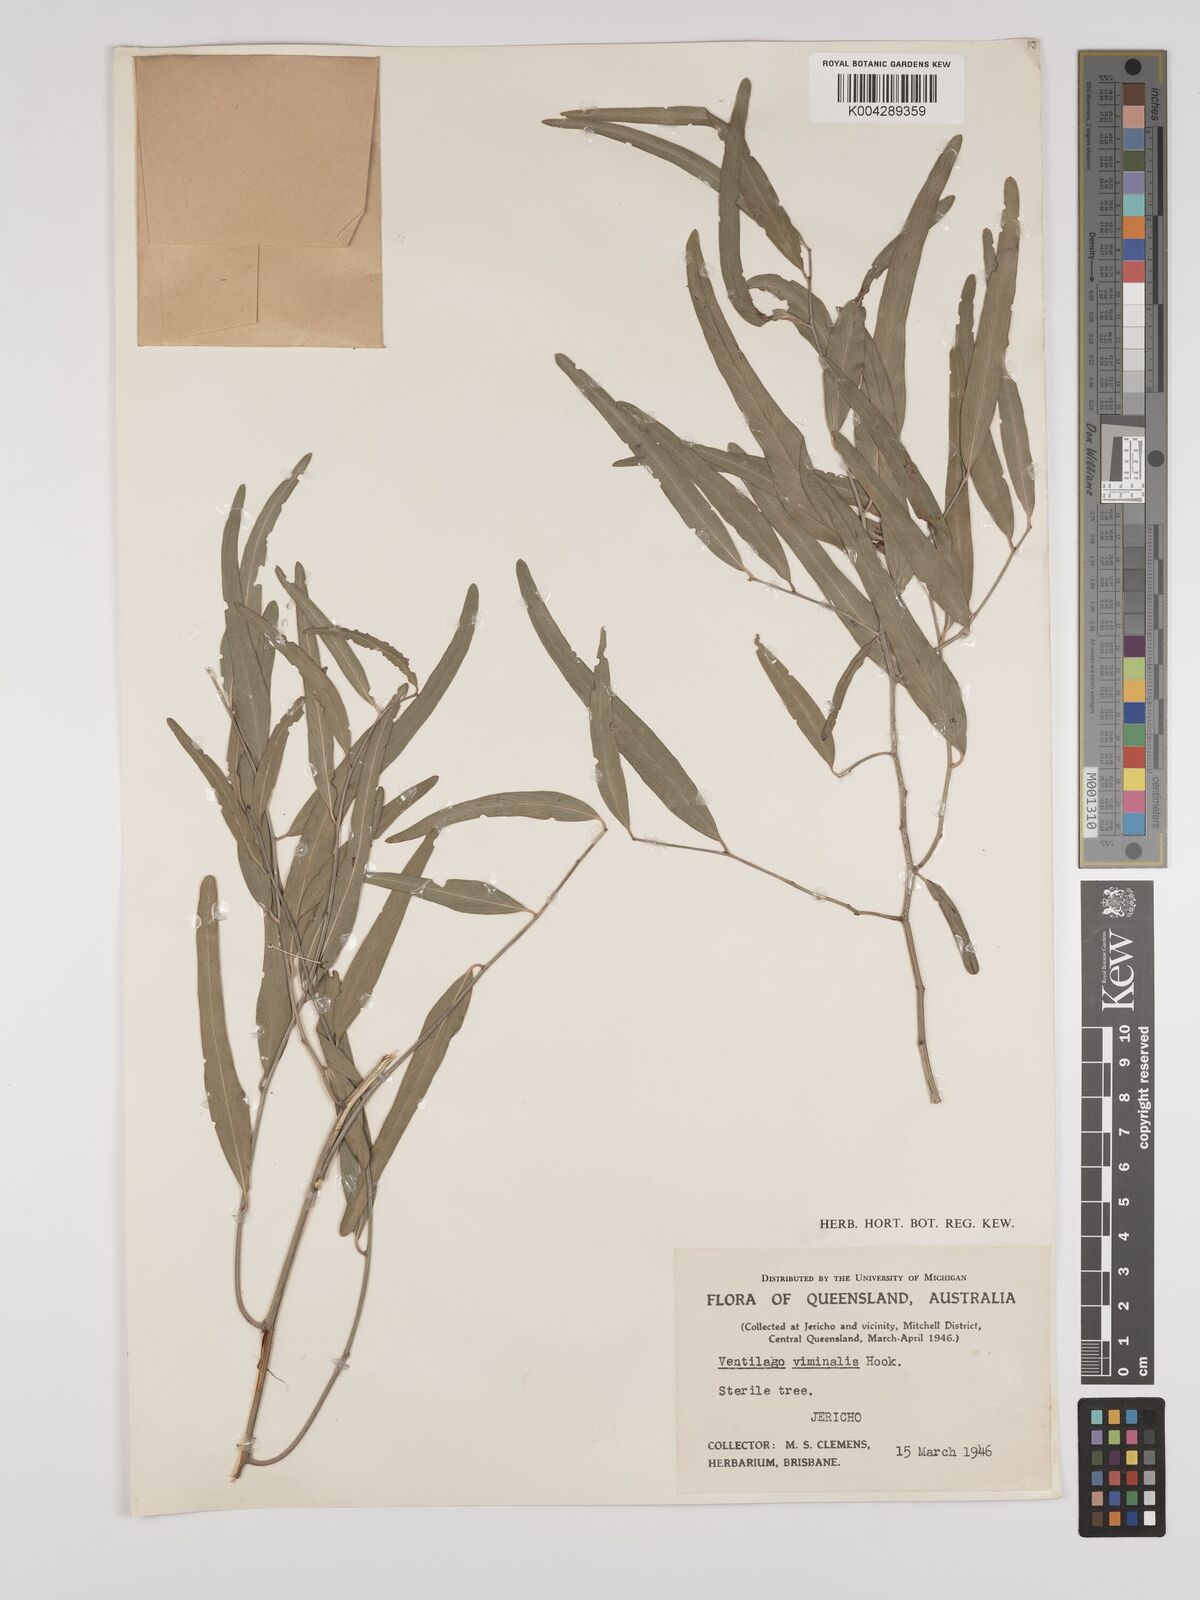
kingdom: Plantae
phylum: Tracheophyta
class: Magnoliopsida
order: Rosales
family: Rhamnaceae
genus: Ventilago
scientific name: Ventilago viminalis
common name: Medicine-bark
